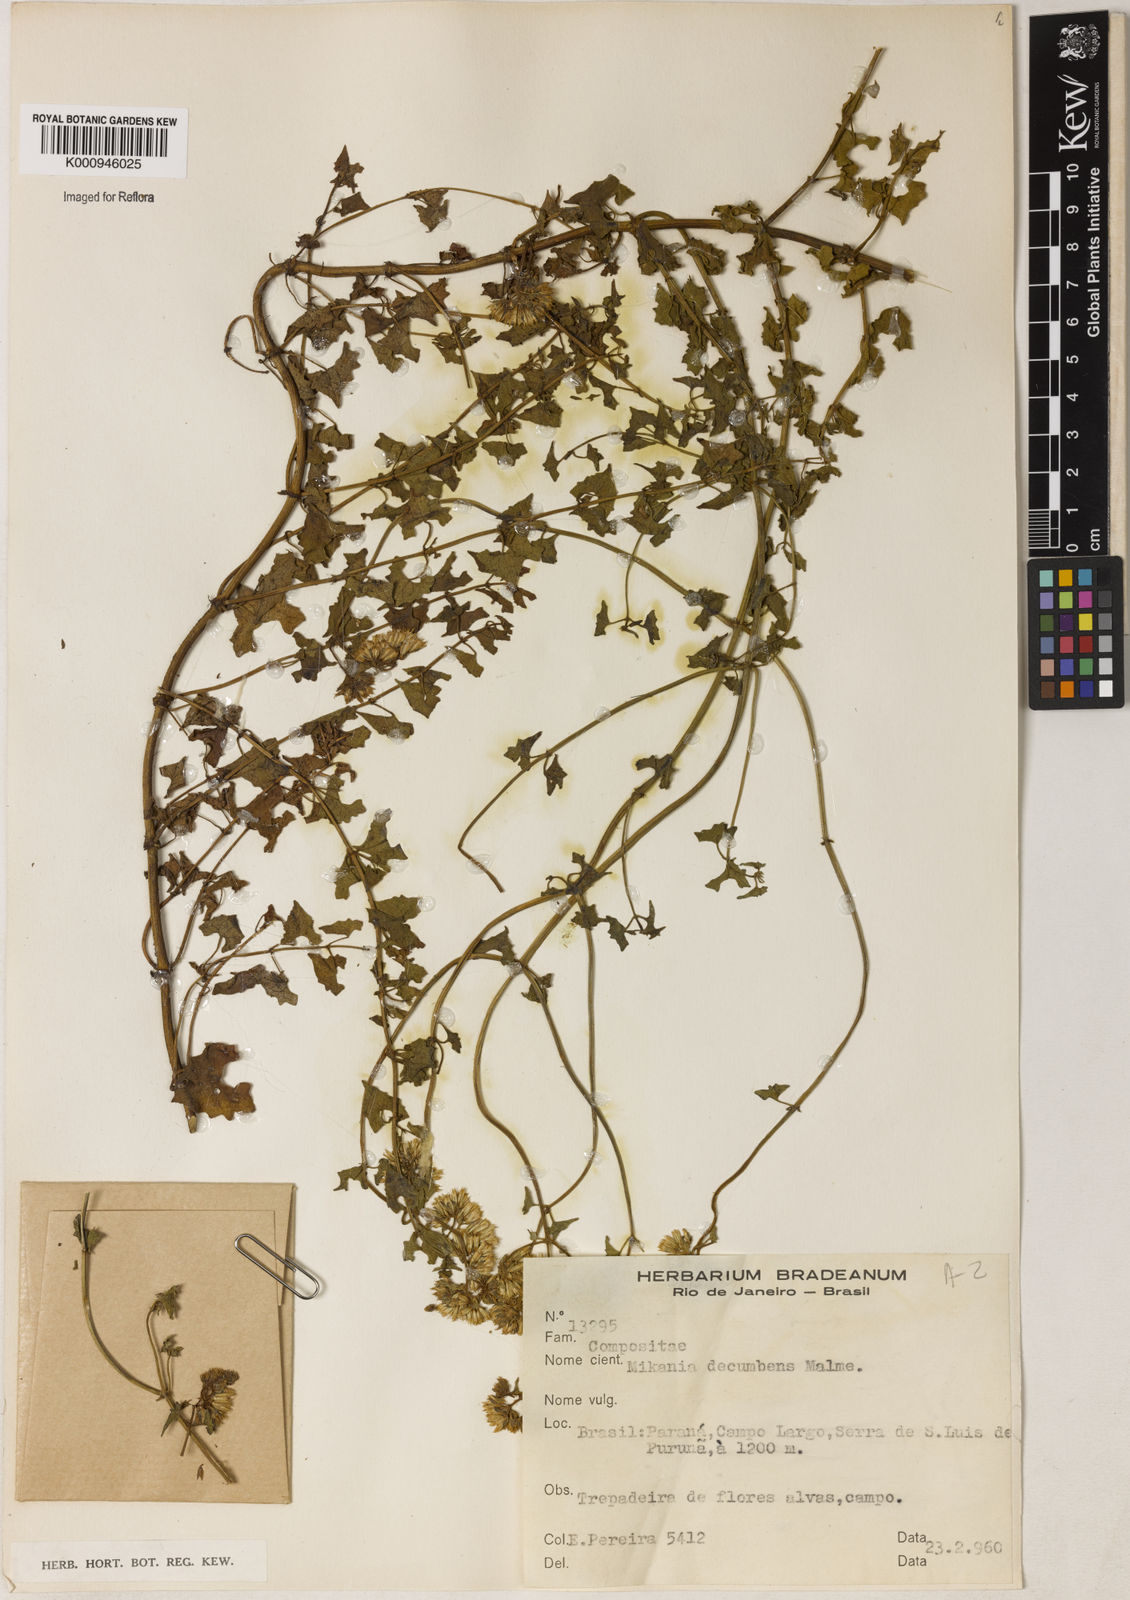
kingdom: Plantae
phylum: Tracheophyta
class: Magnoliopsida
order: Asterales
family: Asteraceae
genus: Mikania
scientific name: Mikania decumbens
